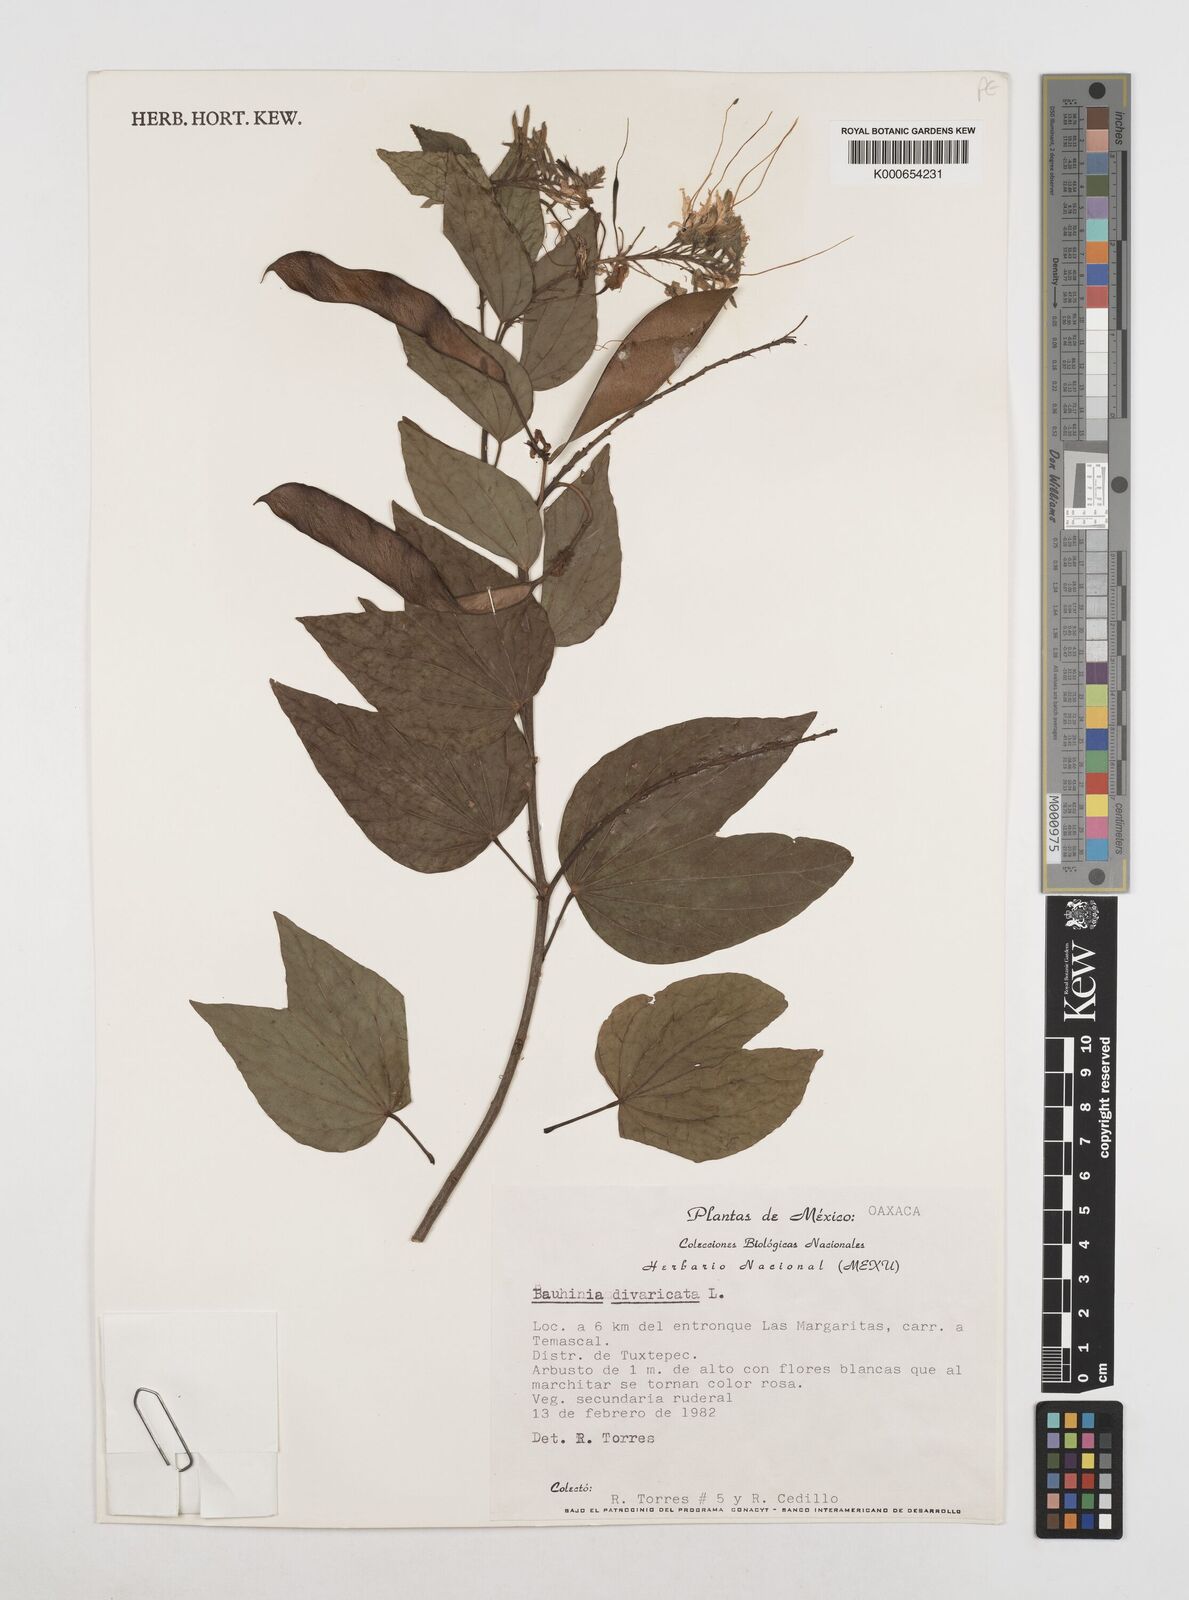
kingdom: Plantae
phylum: Tracheophyta
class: Magnoliopsida
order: Fabales
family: Fabaceae
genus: Bauhinia
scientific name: Bauhinia divaricata
